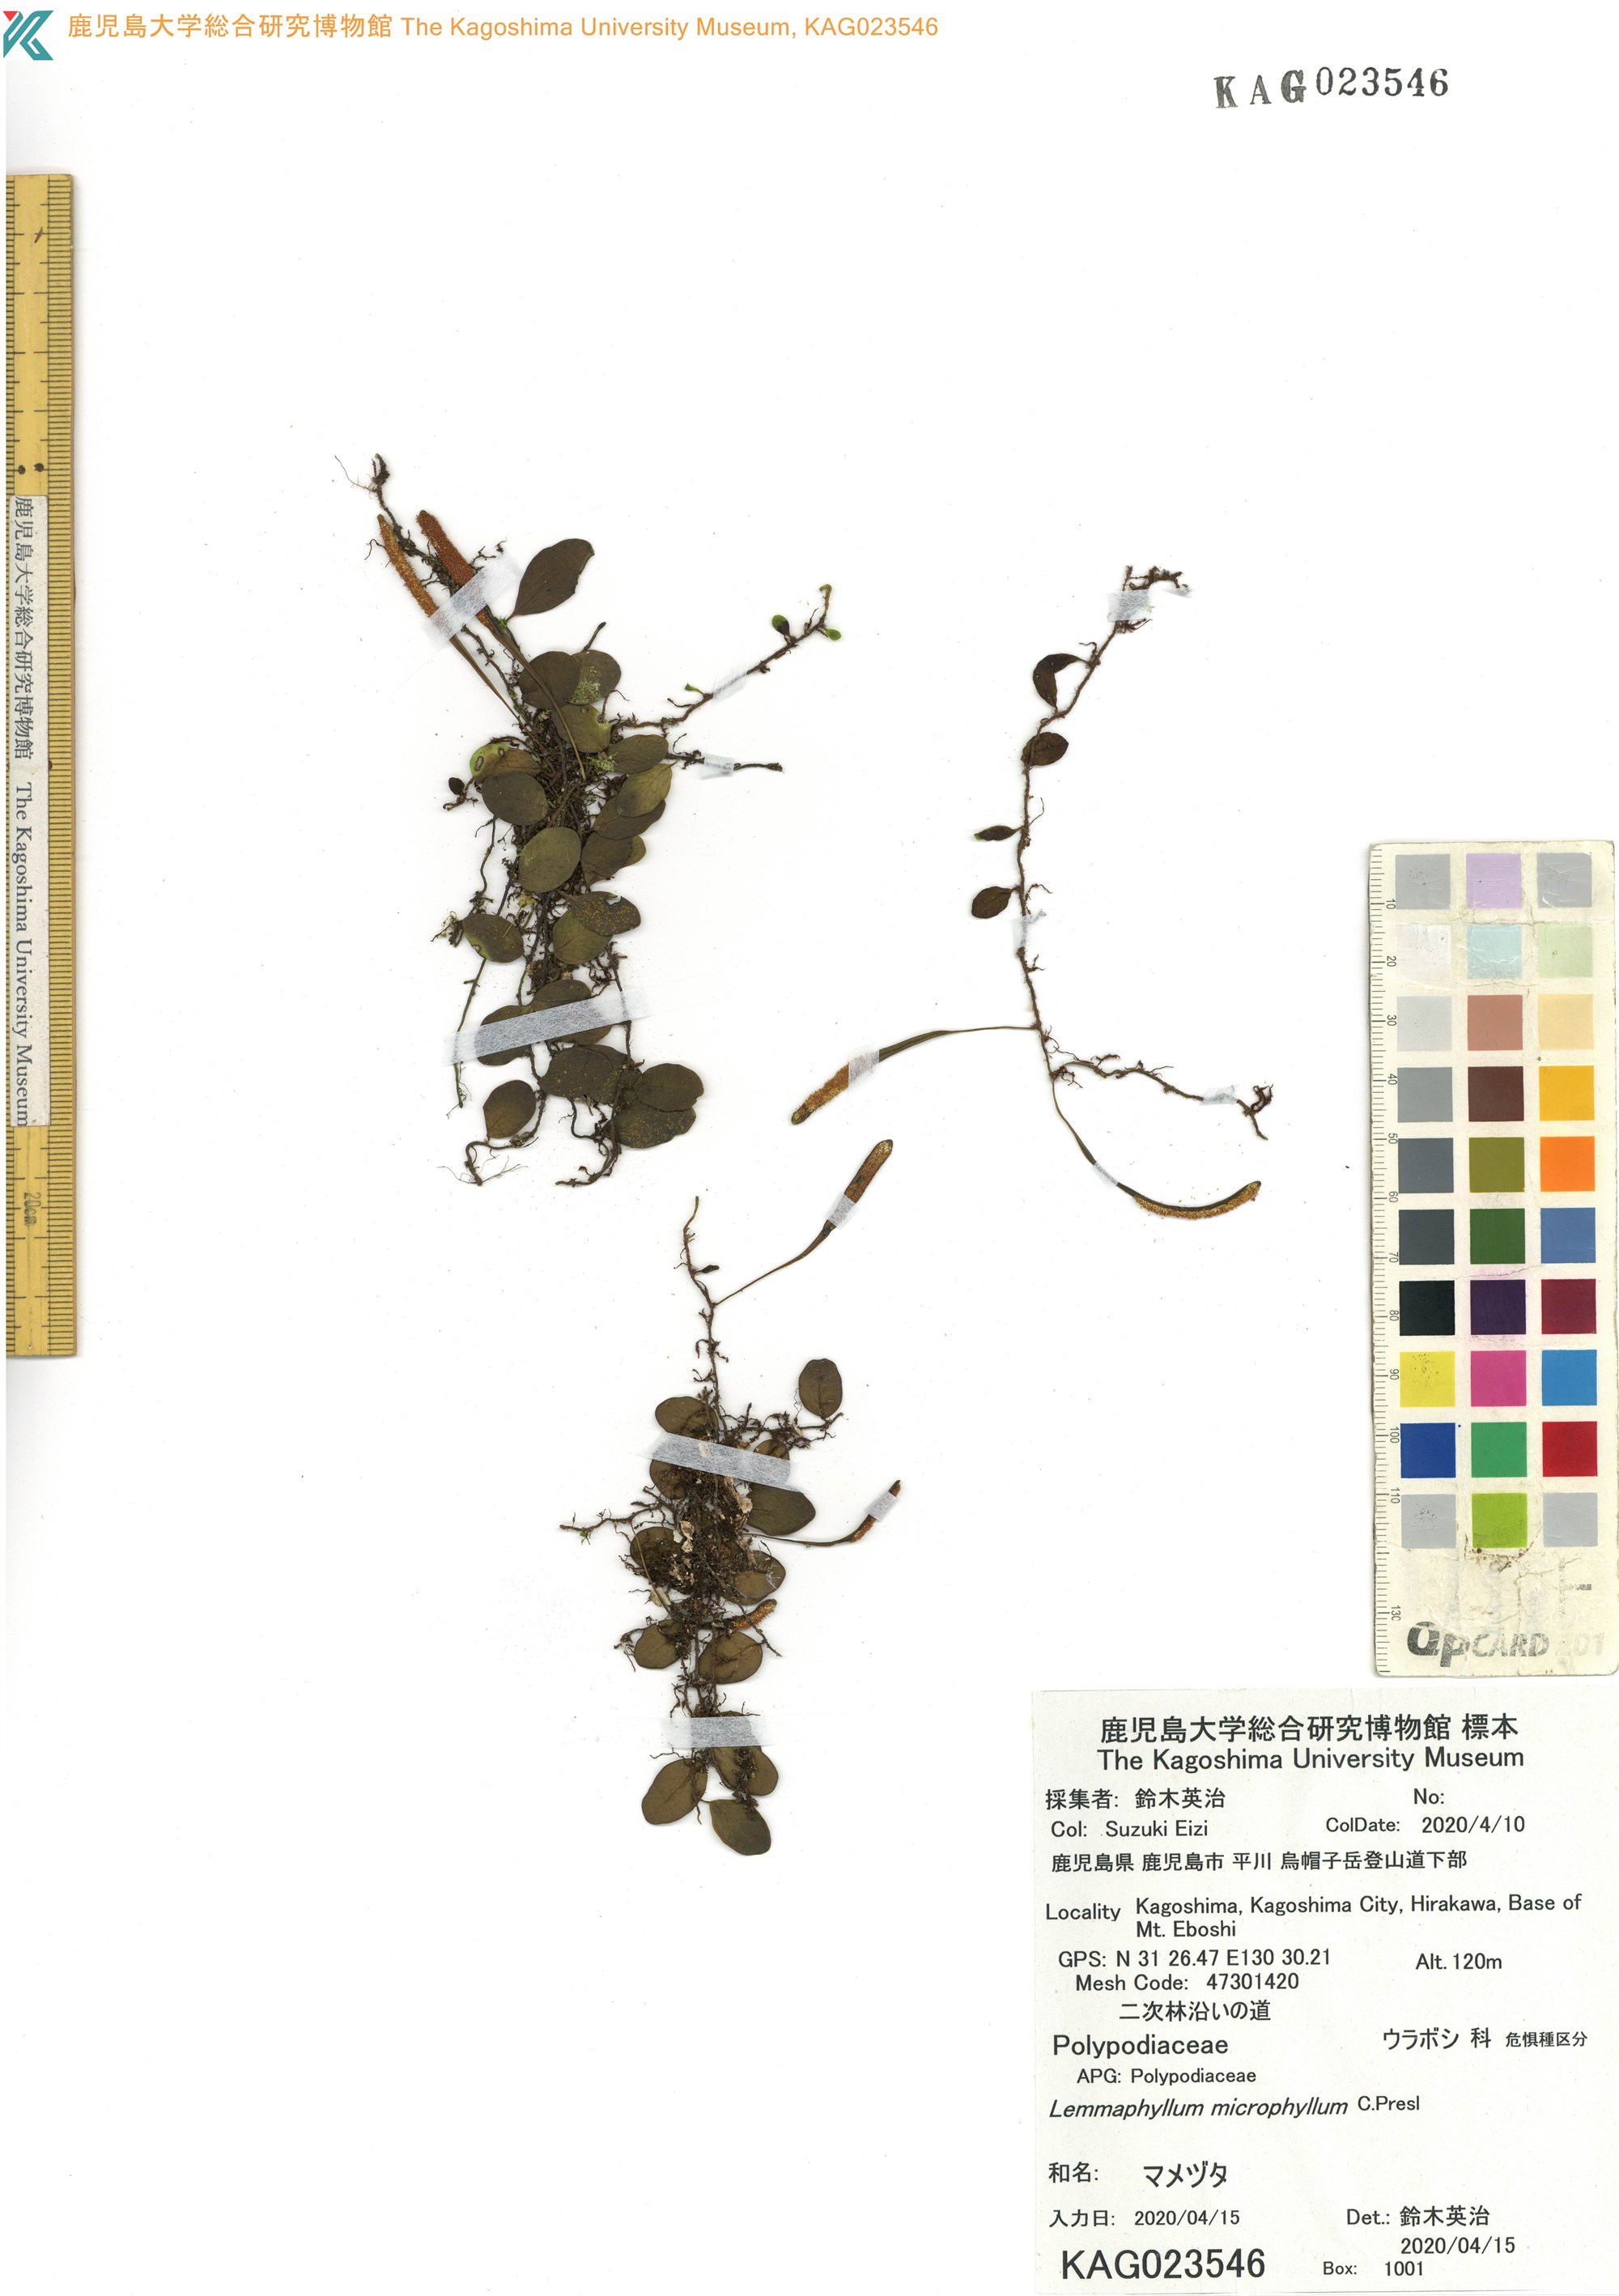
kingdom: Plantae
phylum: Tracheophyta
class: Polypodiopsida
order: Polypodiales
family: Polypodiaceae
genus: Lepisorus
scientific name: Lepisorus microphyllus
